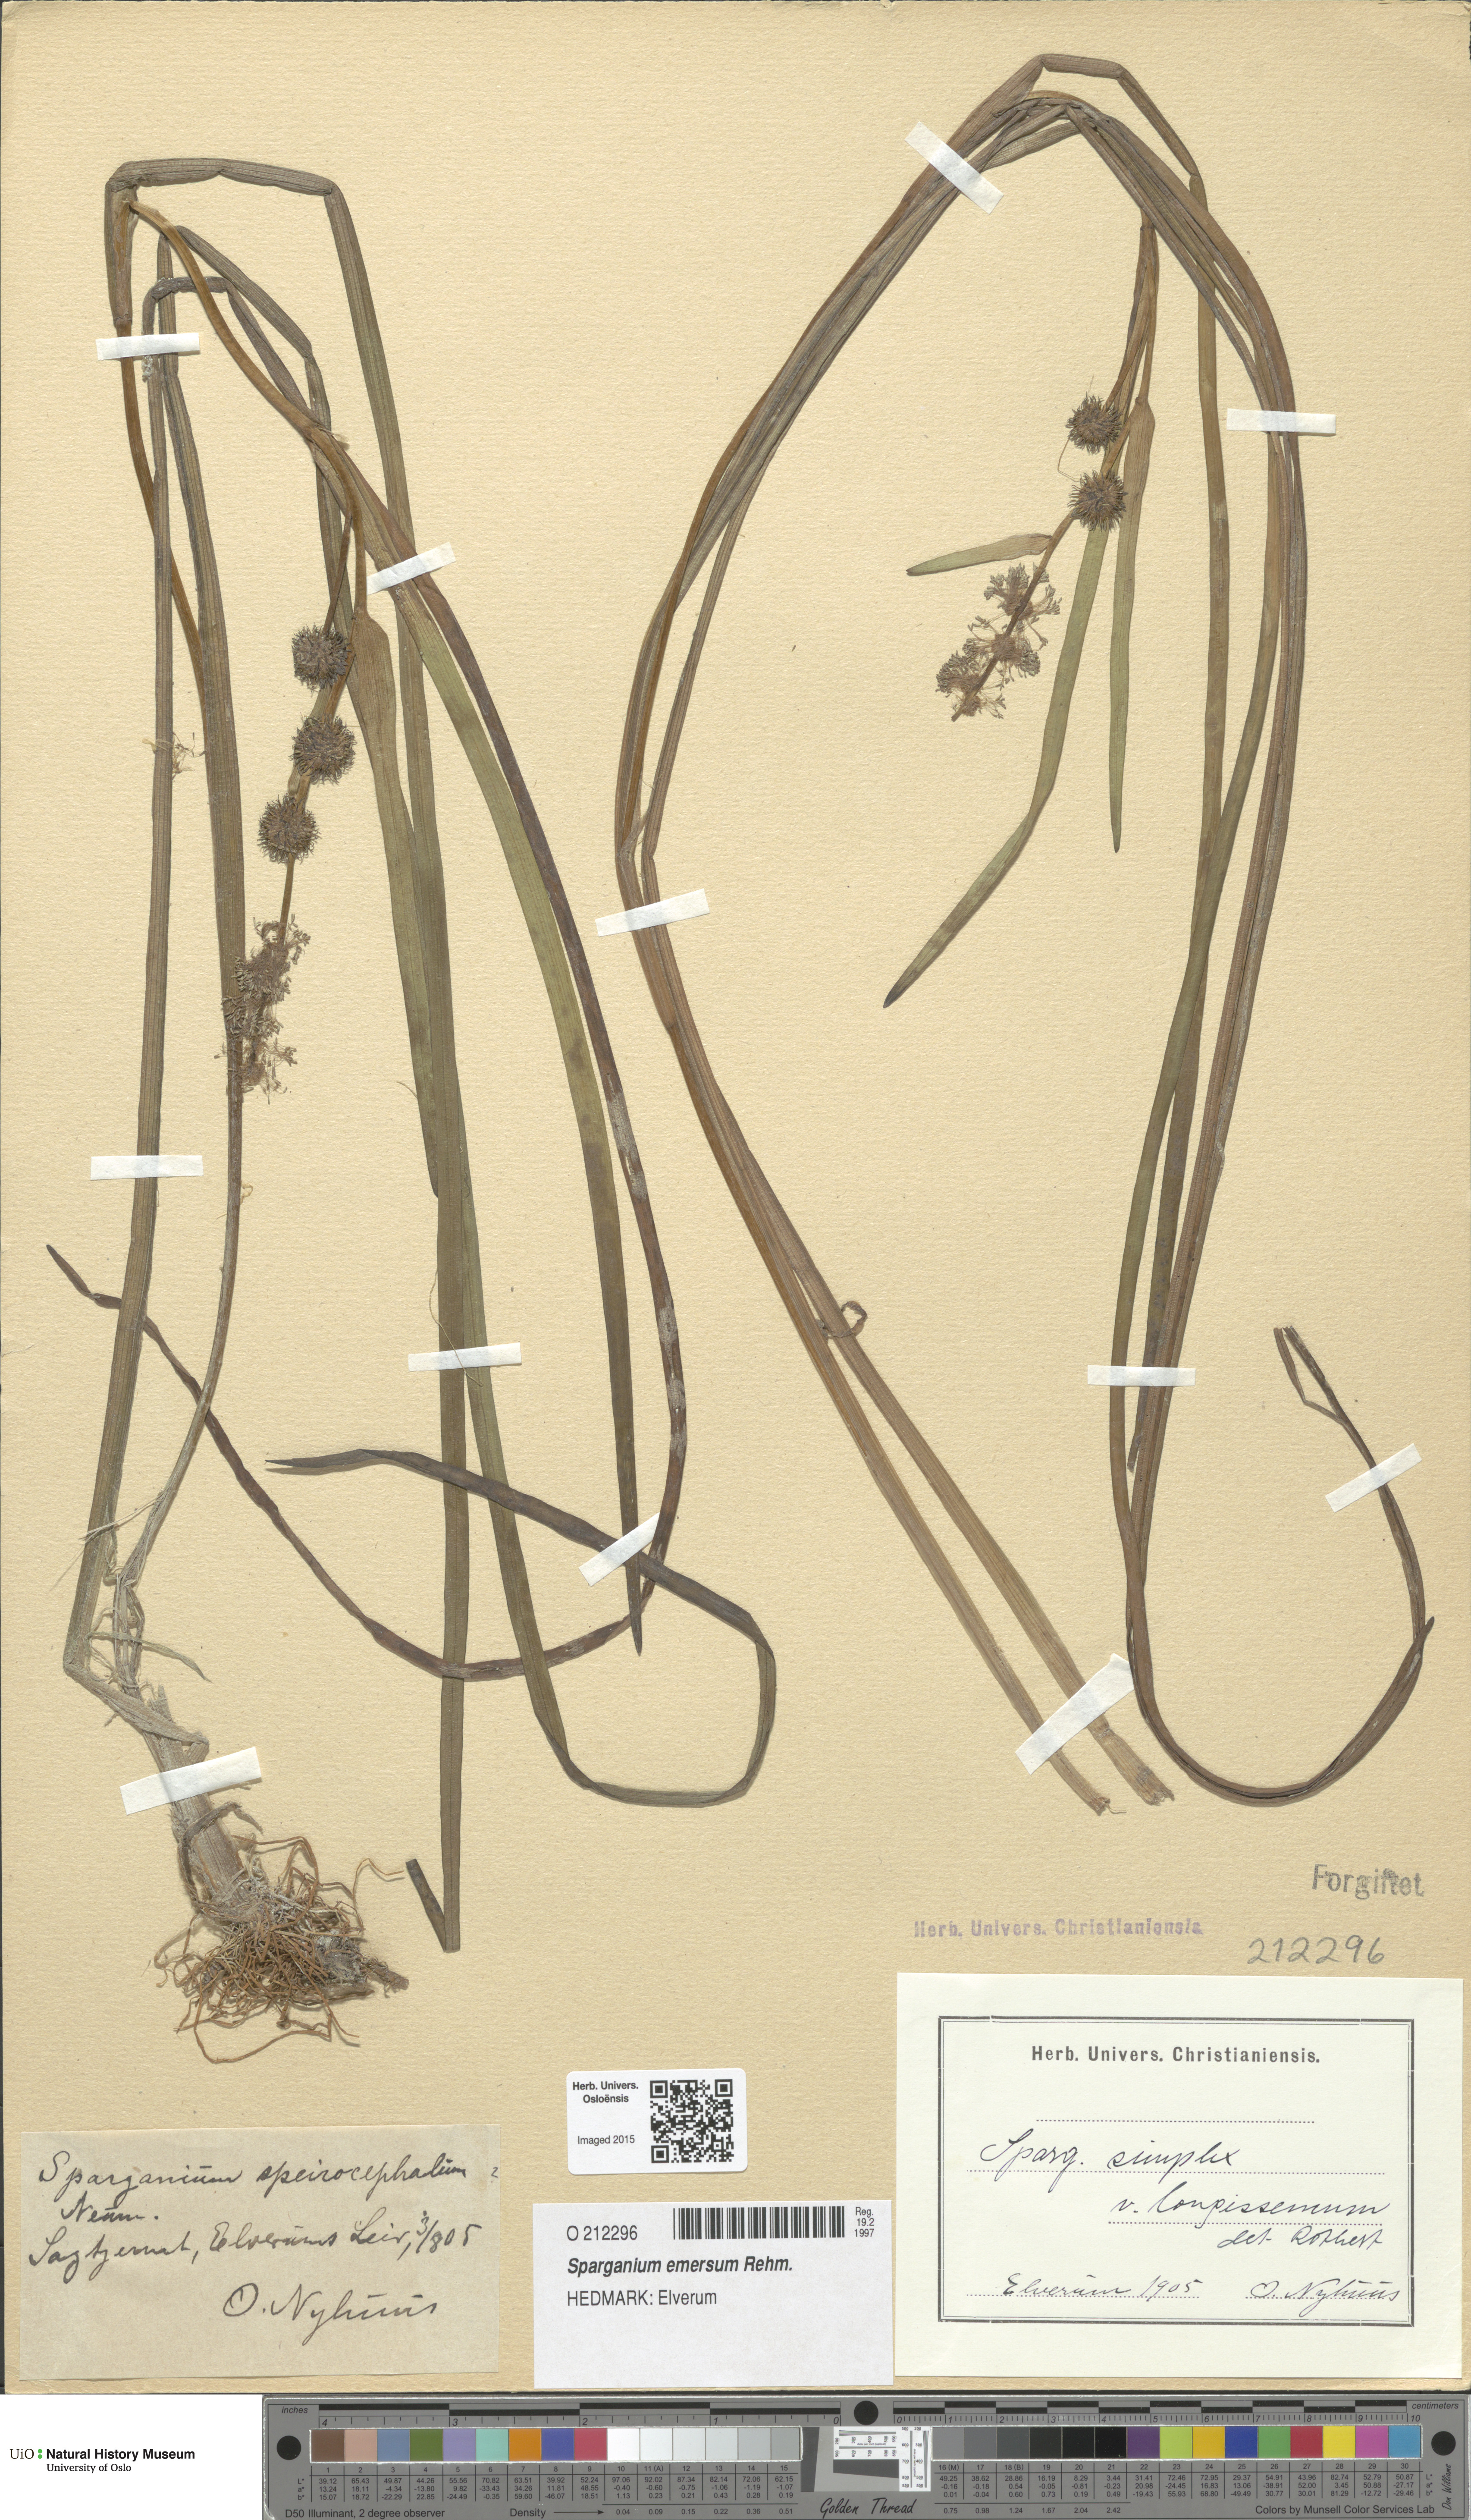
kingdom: Plantae
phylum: Tracheophyta
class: Liliopsida
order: Poales
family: Typhaceae
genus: Sparganium
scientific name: Sparganium emersum
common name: Unbranched bur-reed
